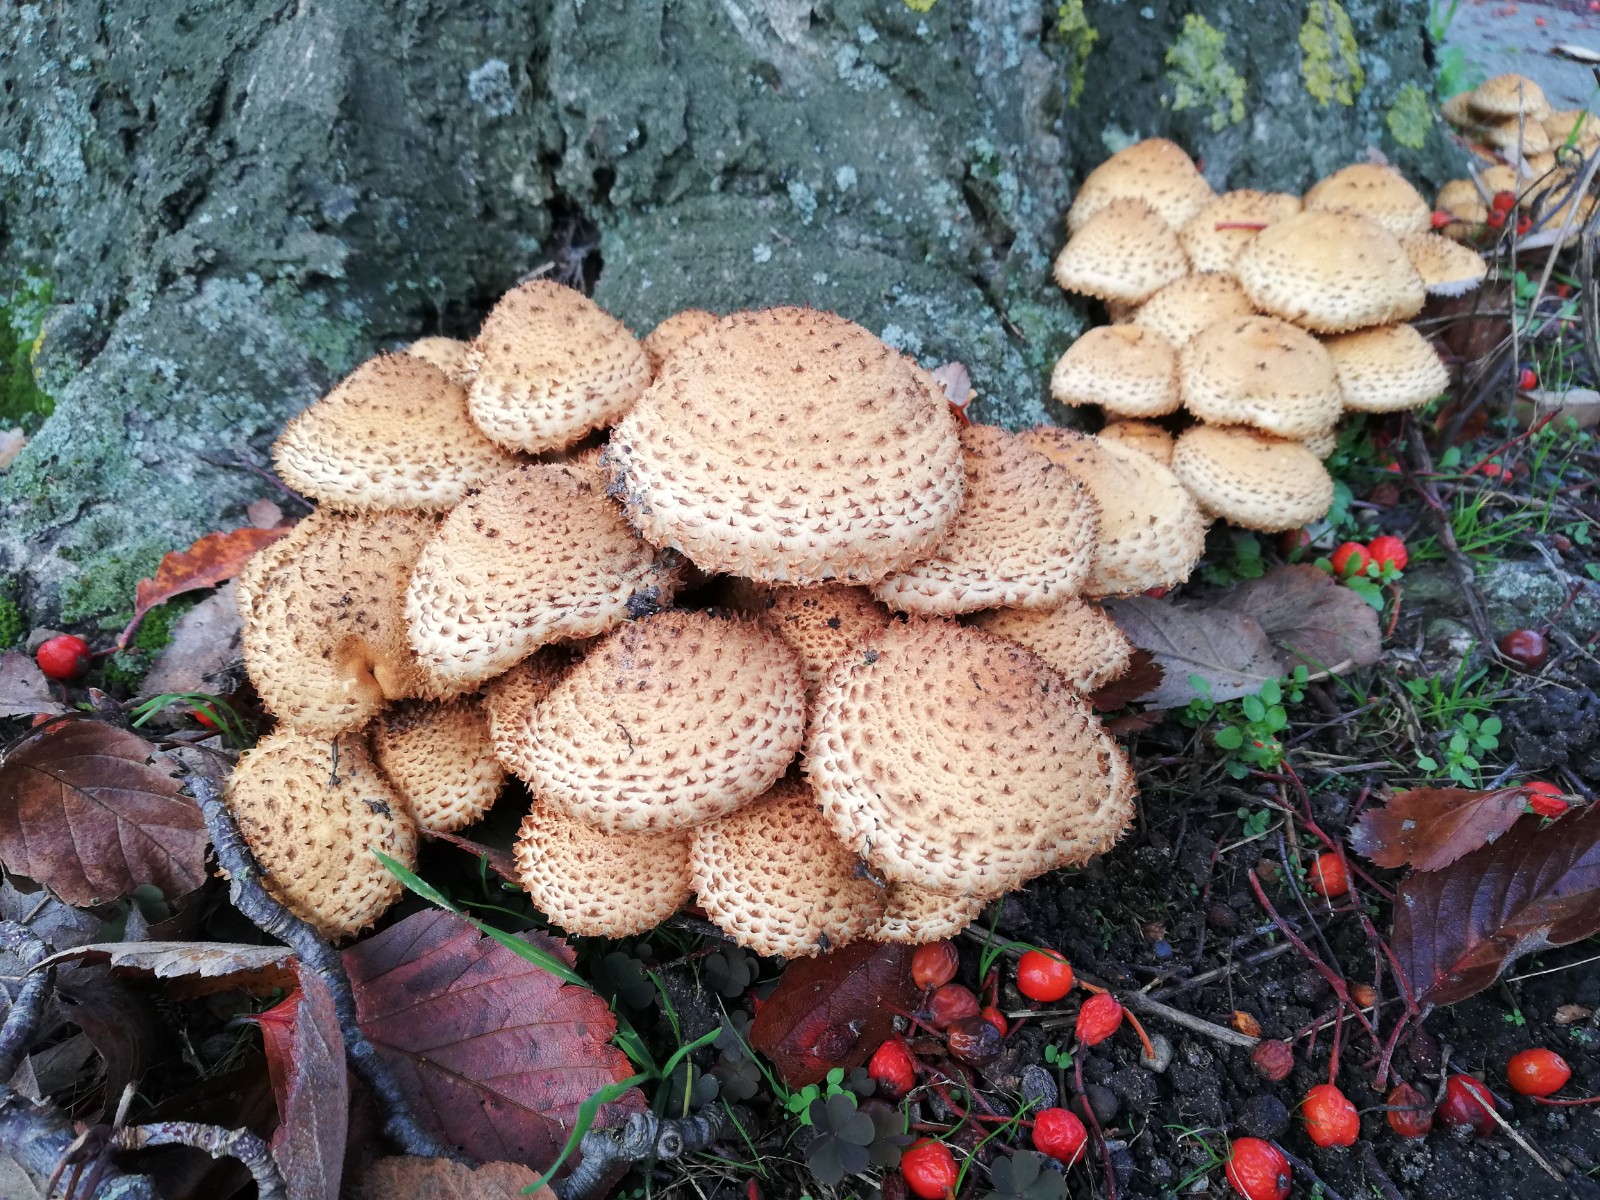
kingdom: Fungi
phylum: Basidiomycota
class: Agaricomycetes
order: Agaricales
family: Strophariaceae
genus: Pholiota
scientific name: Pholiota squarrosa
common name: krumskællet skælhat
